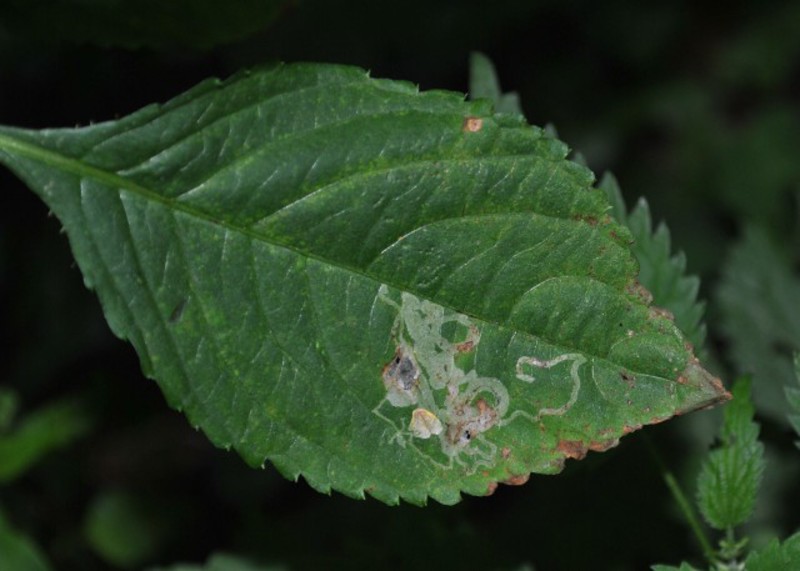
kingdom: Animalia
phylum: Arthropoda
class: Insecta
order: Diptera
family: Agromyzidae
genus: Phytoliriomyza
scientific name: Phytoliriomyza melampyga
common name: Jewelweed leaf-miner fly
